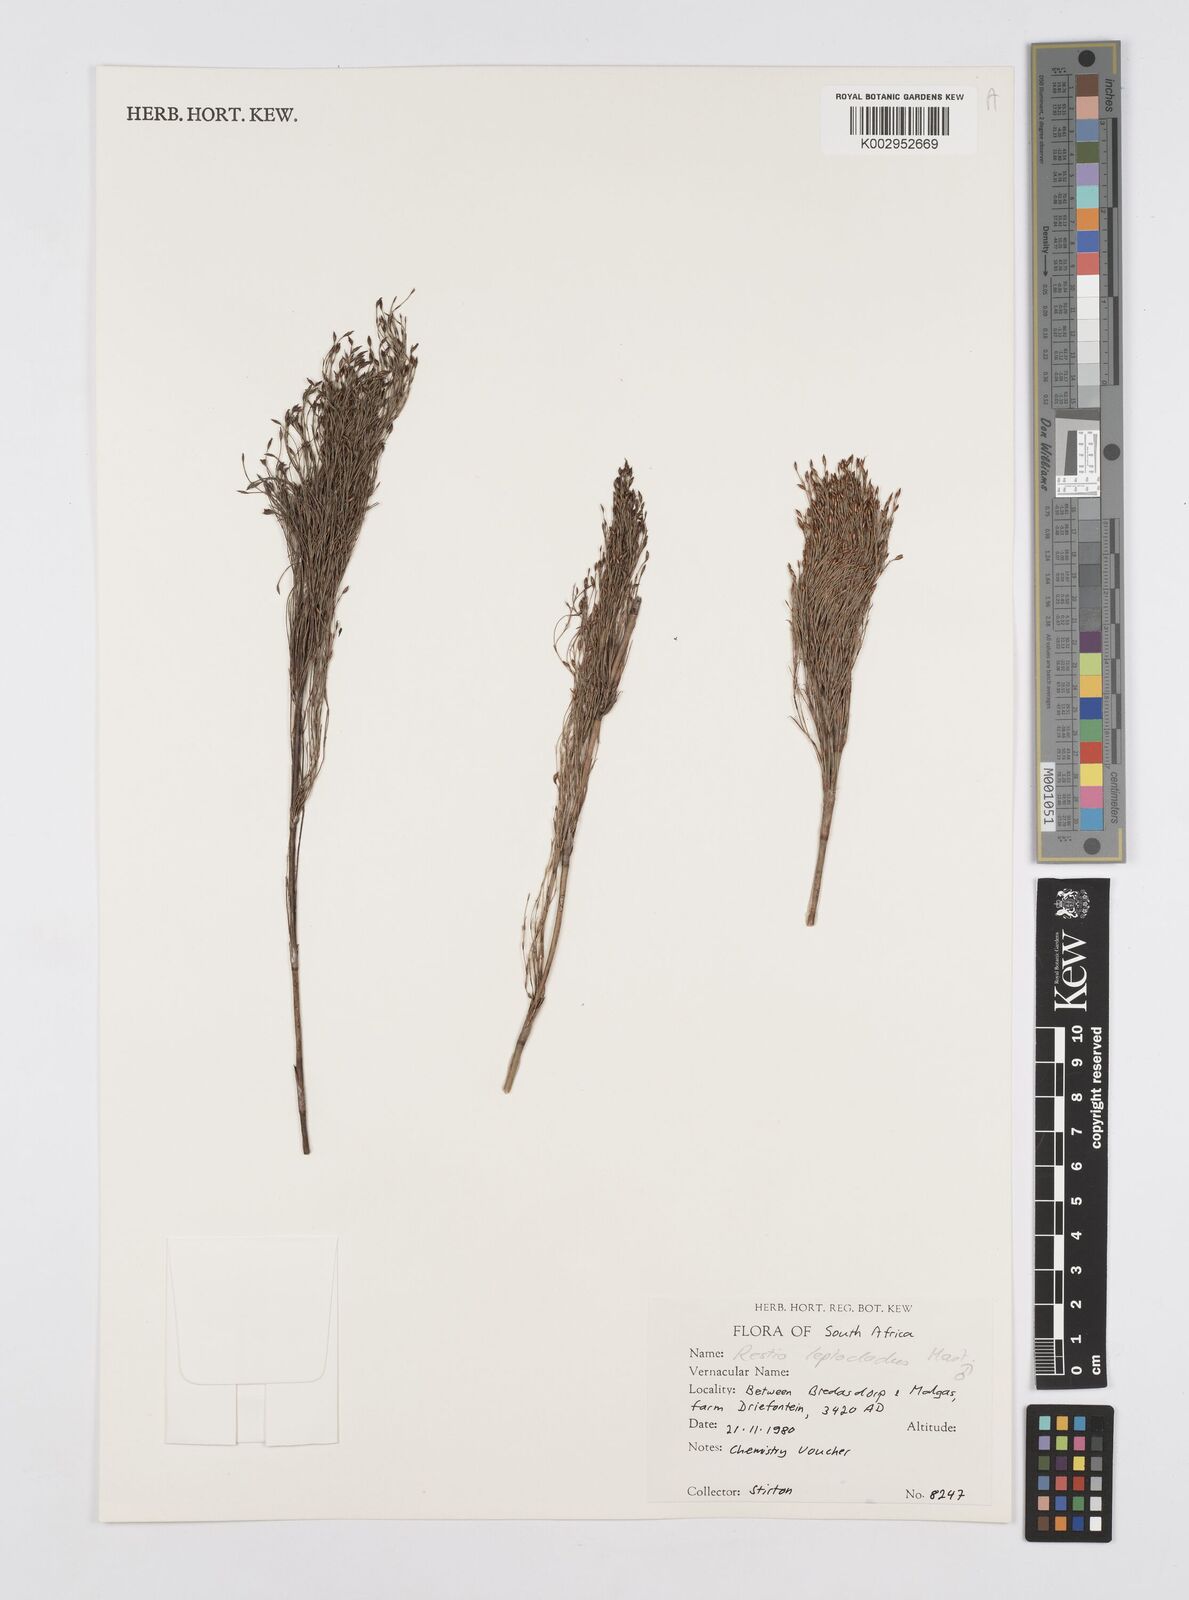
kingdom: Plantae
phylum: Tracheophyta
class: Liliopsida
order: Poales
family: Restionaceae
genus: Restio
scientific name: Restio leptoclados
